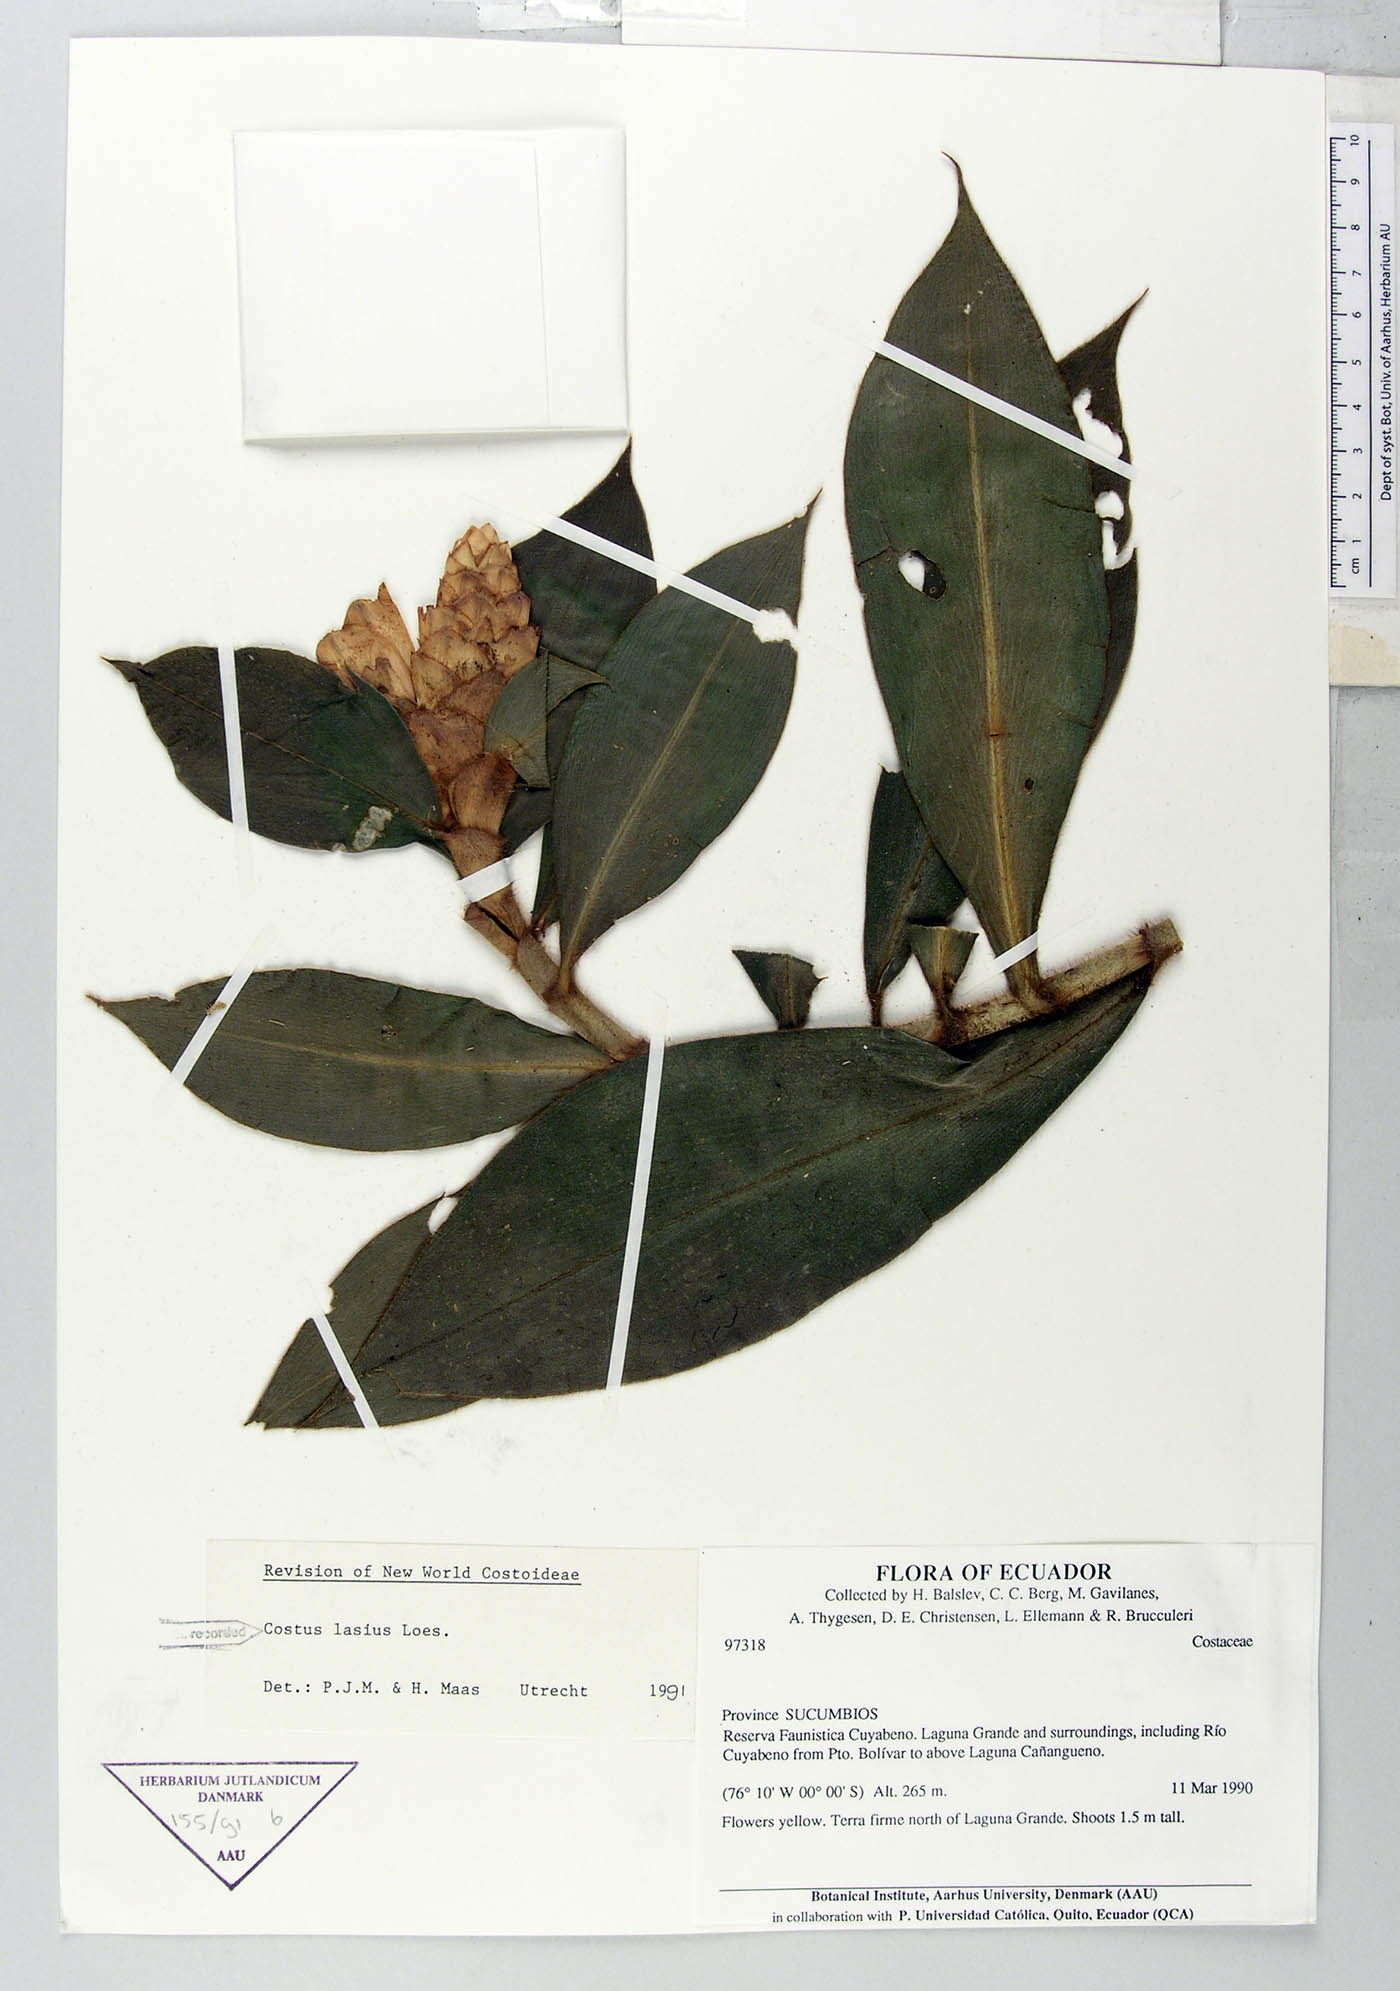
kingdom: Plantae
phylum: Tracheophyta
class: Liliopsida
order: Zingiberales
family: Costaceae
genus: Costus
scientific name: Costus lasius
